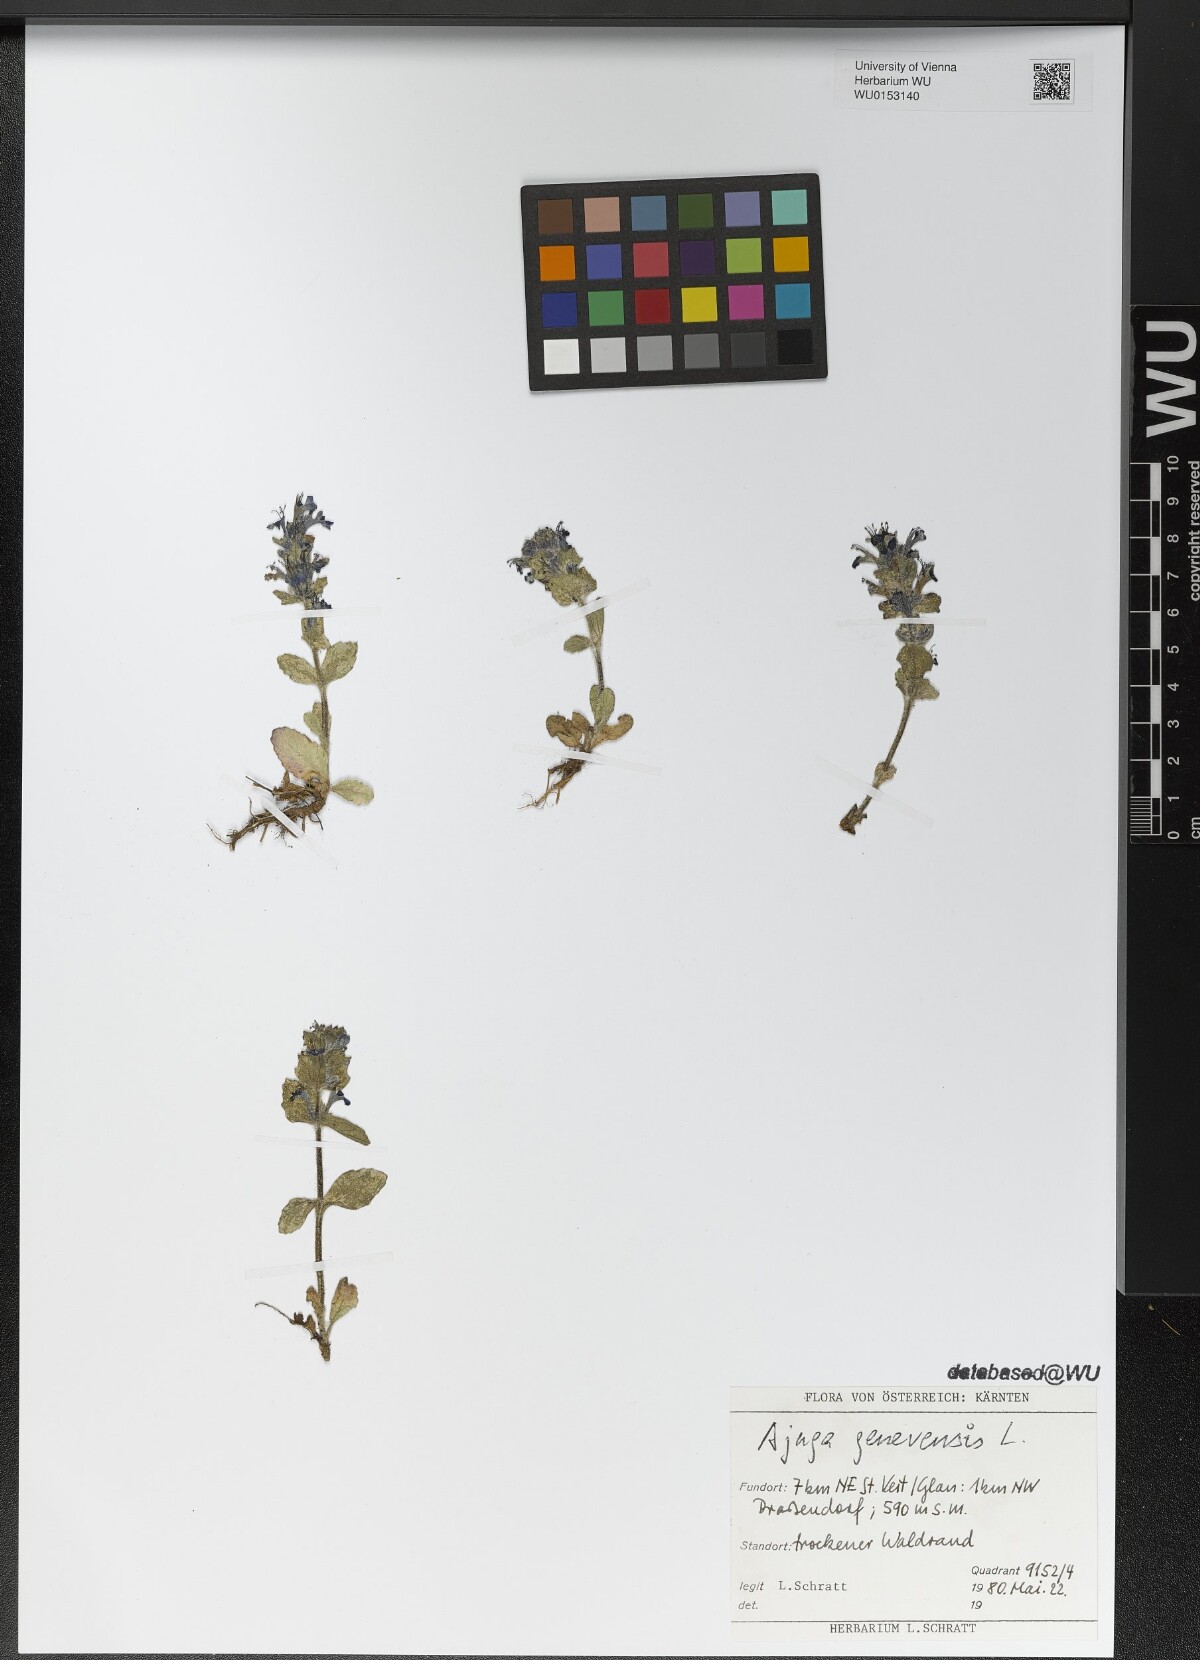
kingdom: Plantae
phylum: Tracheophyta
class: Magnoliopsida
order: Lamiales
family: Lamiaceae
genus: Ajuga
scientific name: Ajuga genevensis
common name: Blue bugle
